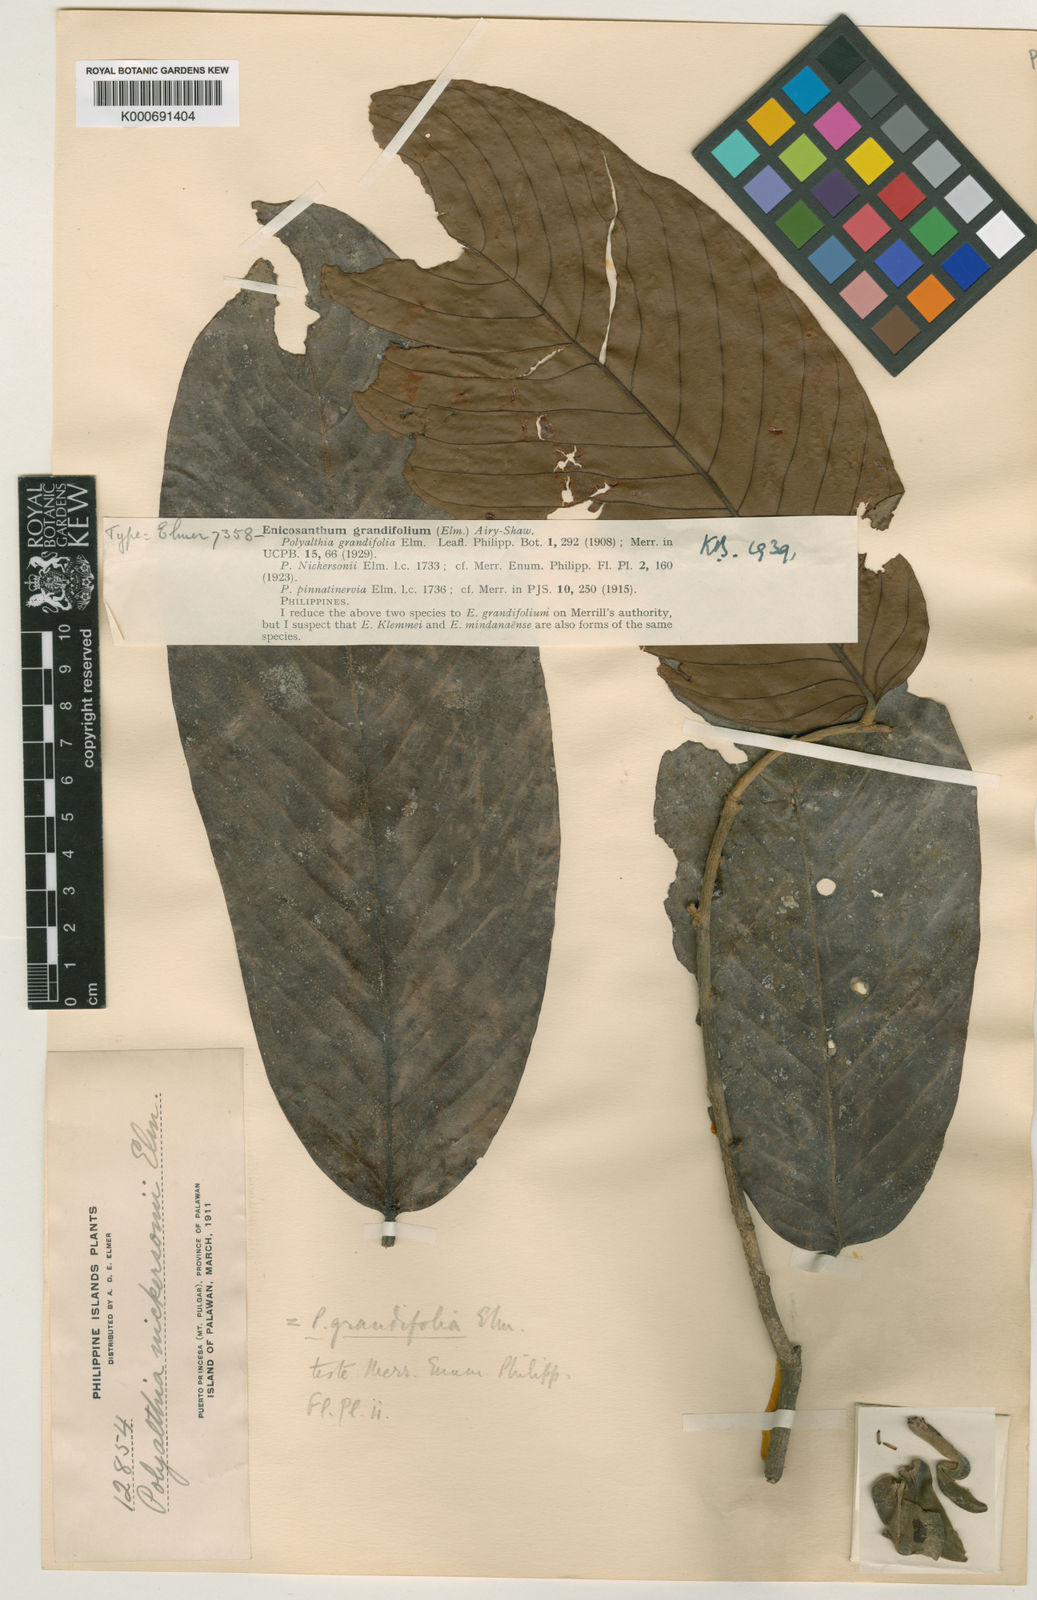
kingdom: Plantae
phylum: Tracheophyta
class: Magnoliopsida
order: Magnoliales
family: Annonaceae
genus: Enicosanthum
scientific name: Enicosanthum grandifolium
